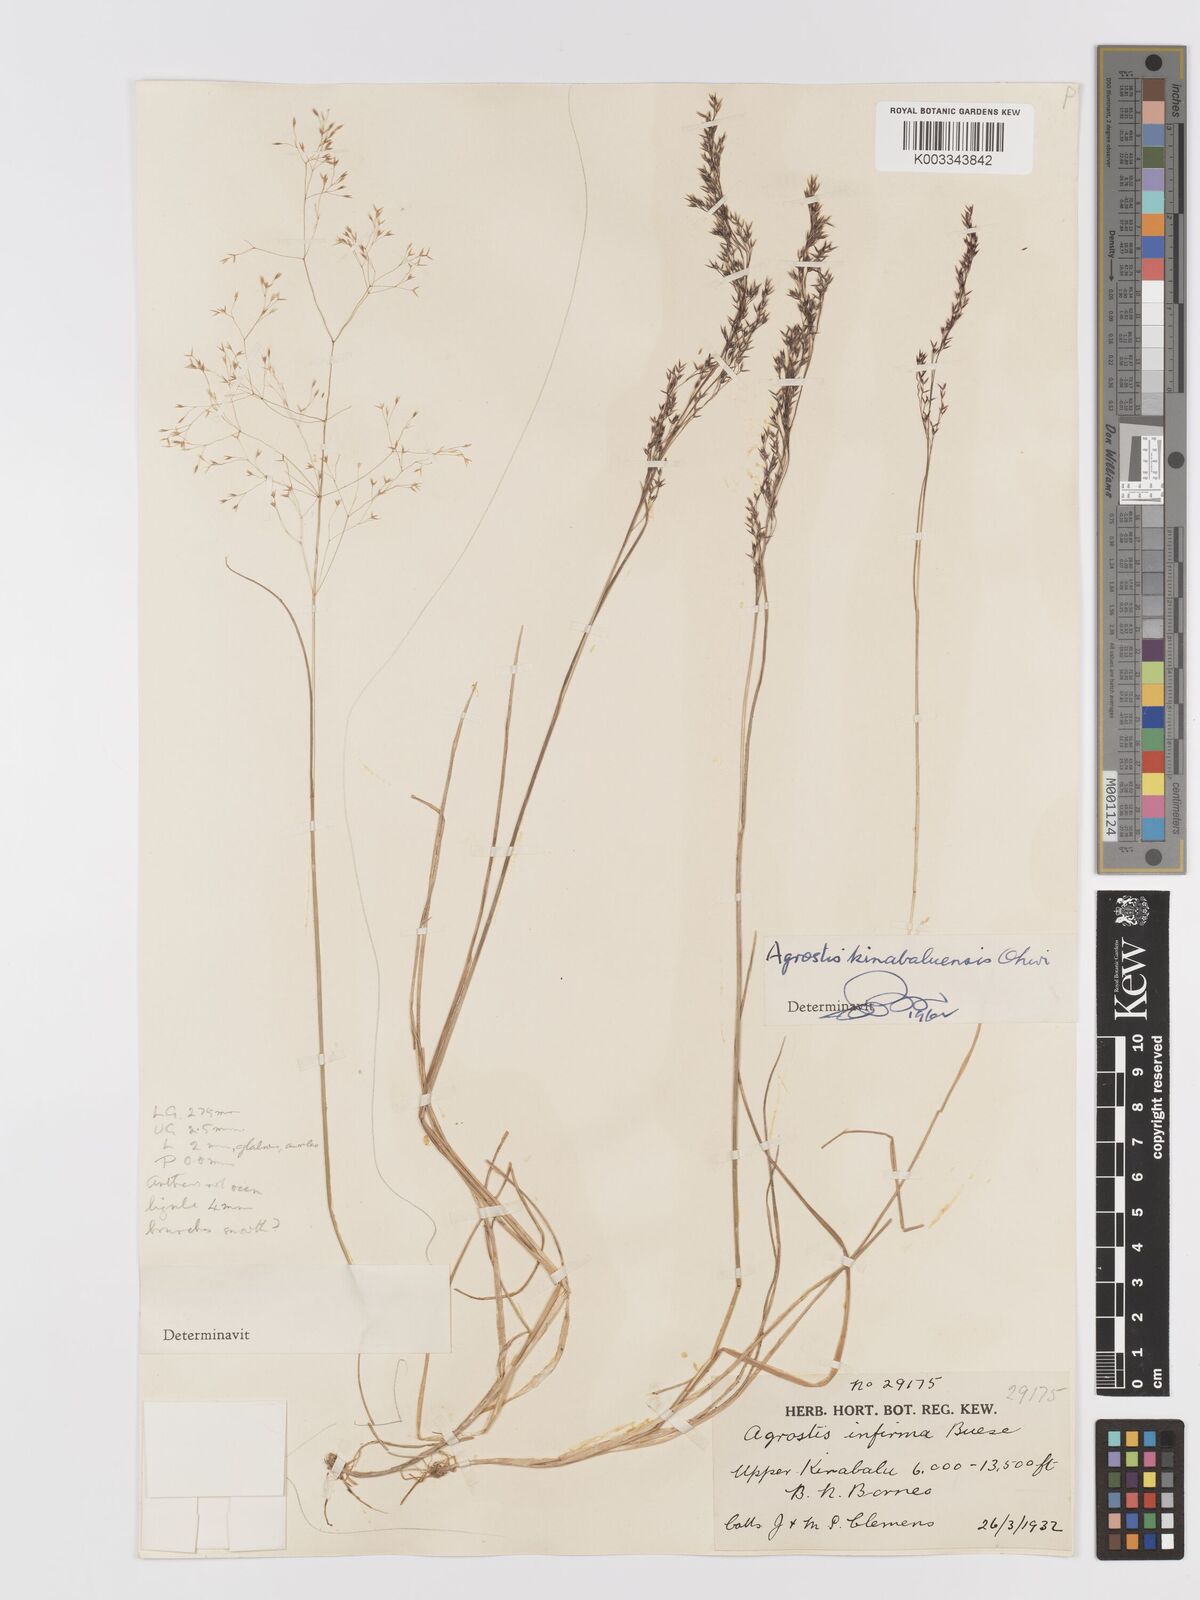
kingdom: Plantae
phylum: Tracheophyta
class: Liliopsida
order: Poales
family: Poaceae
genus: Agrostis
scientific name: Agrostis infirma
